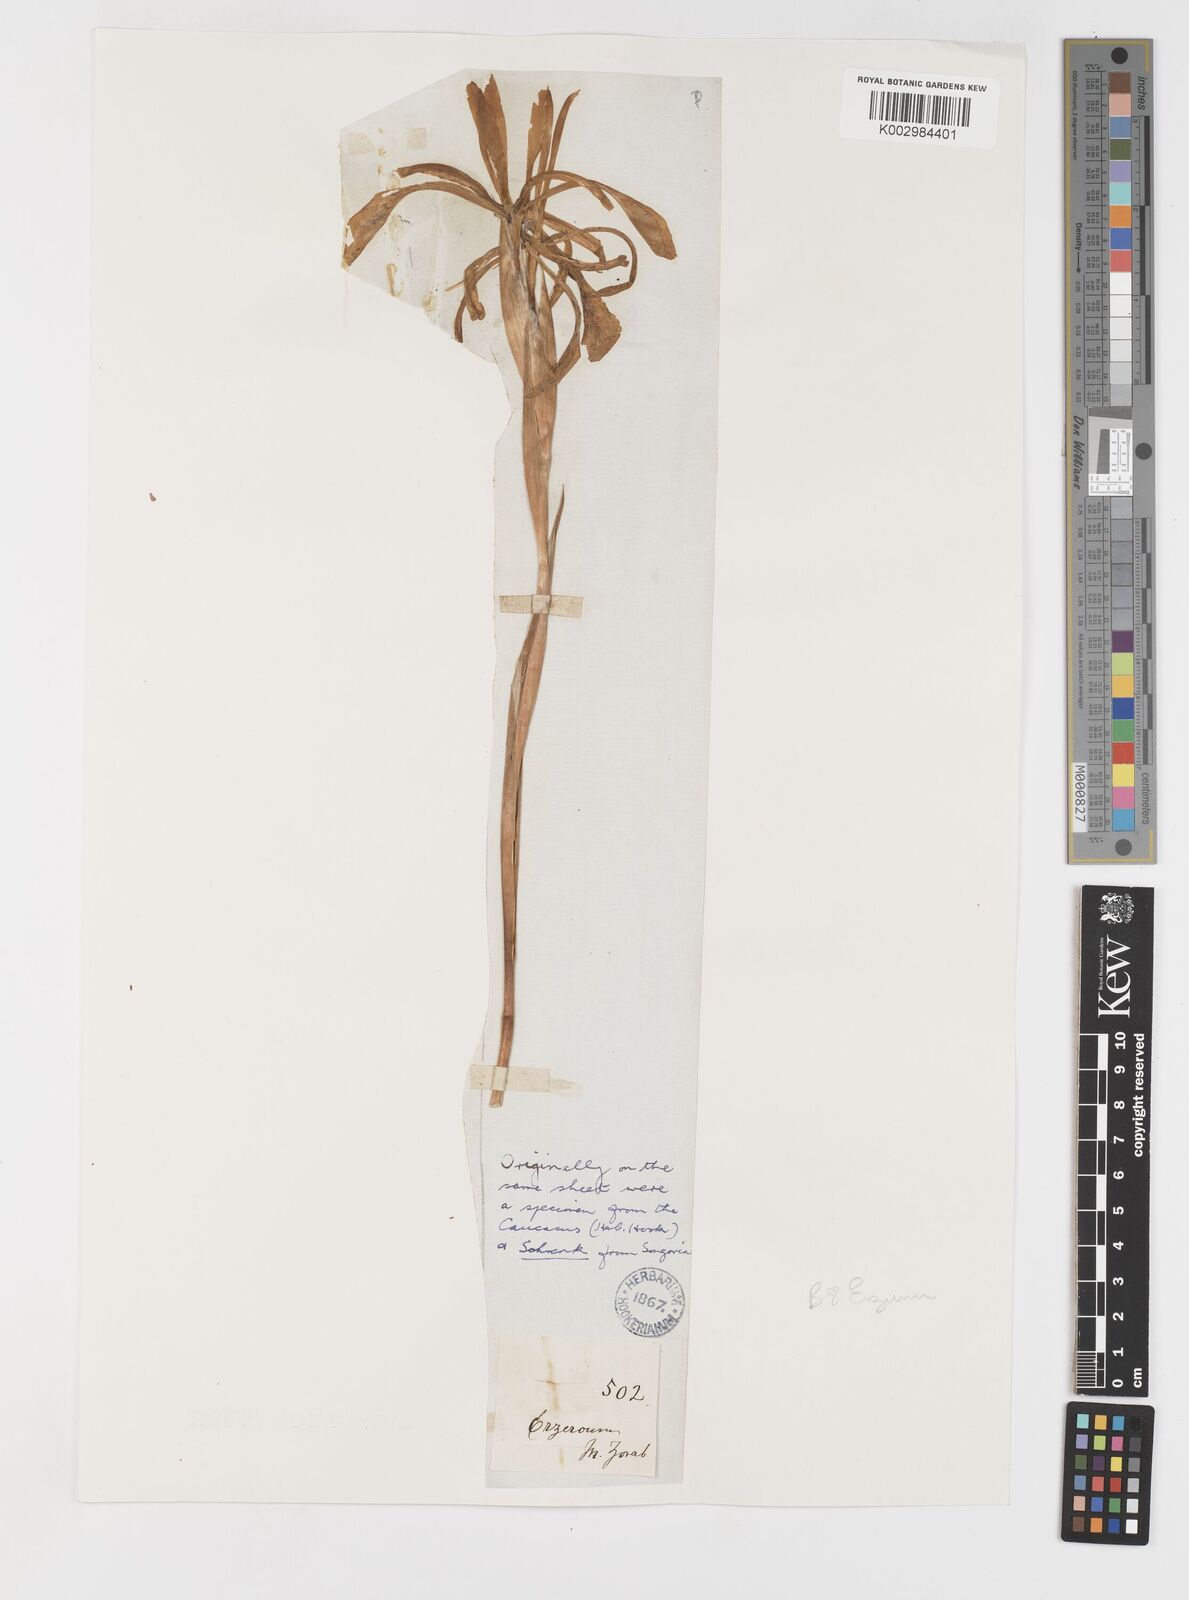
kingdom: Plantae
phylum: Tracheophyta
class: Liliopsida
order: Asparagales
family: Iridaceae
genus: Iris
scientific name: Iris haussknechtii
